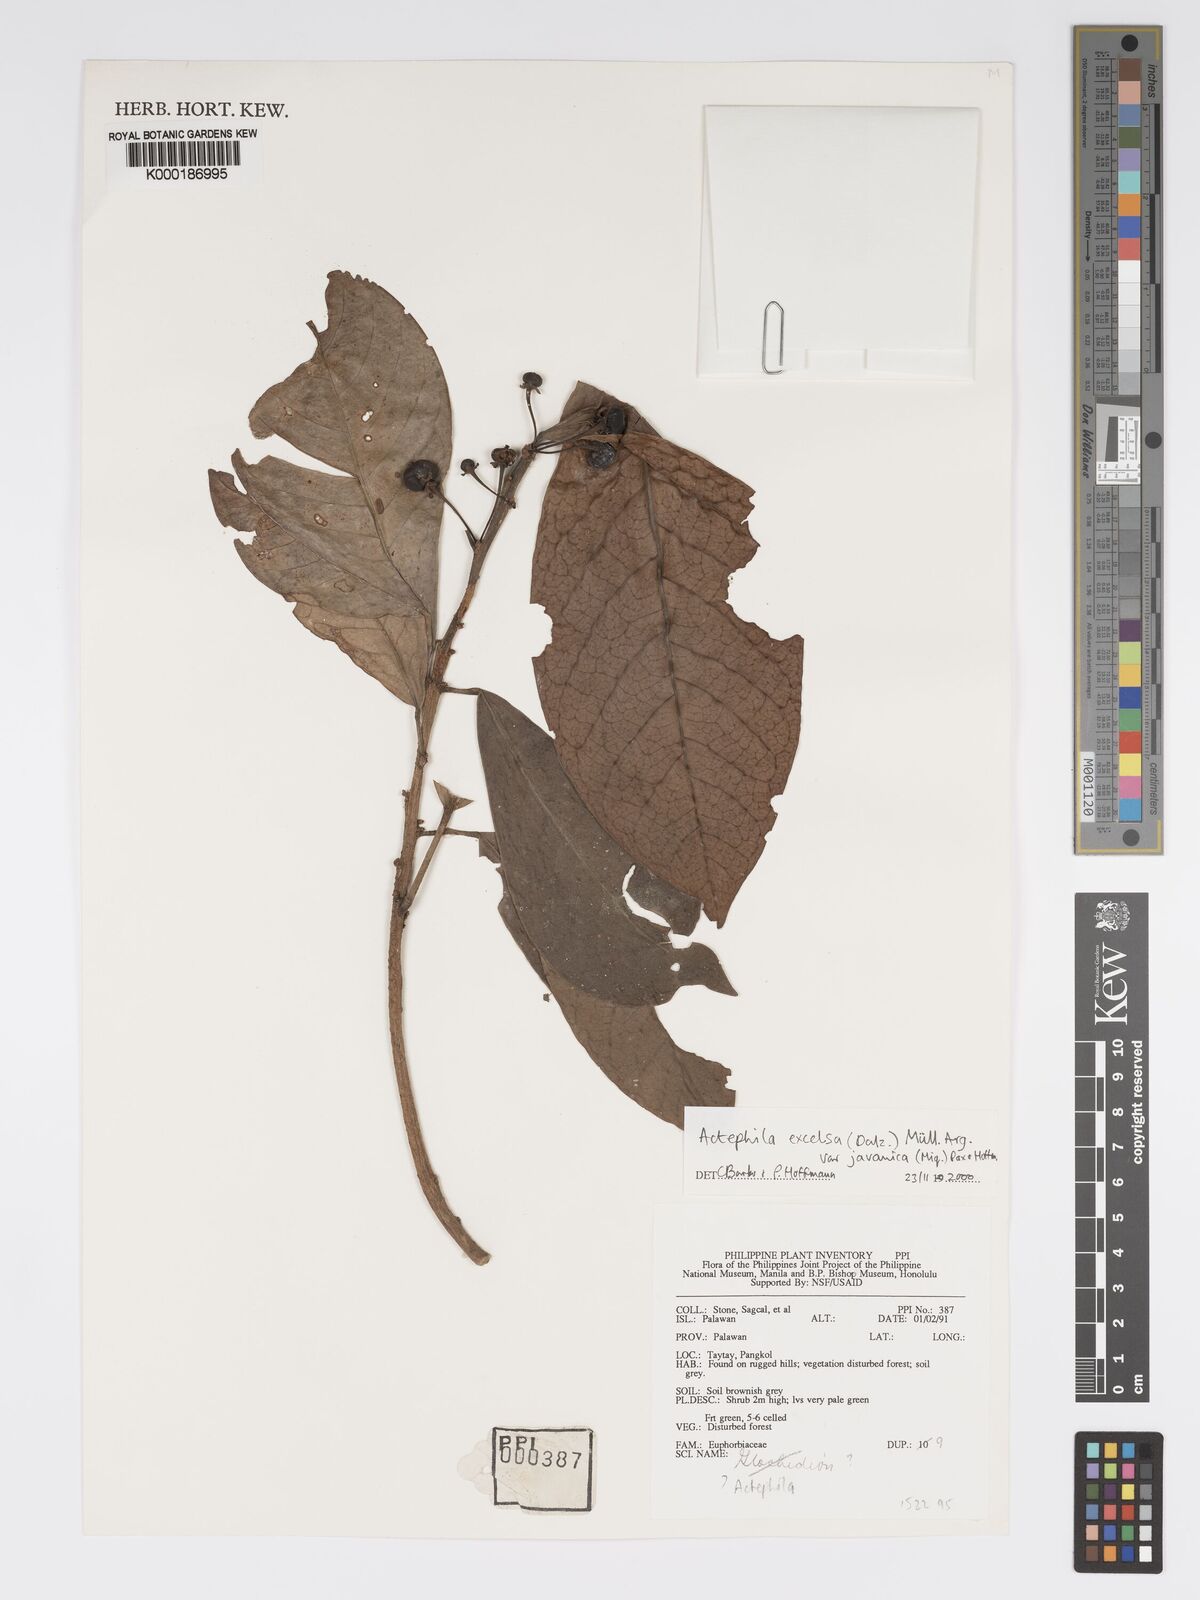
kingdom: Plantae
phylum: Tracheophyta
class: Magnoliopsida
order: Malpighiales
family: Phyllanthaceae
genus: Actephila
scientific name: Actephila
